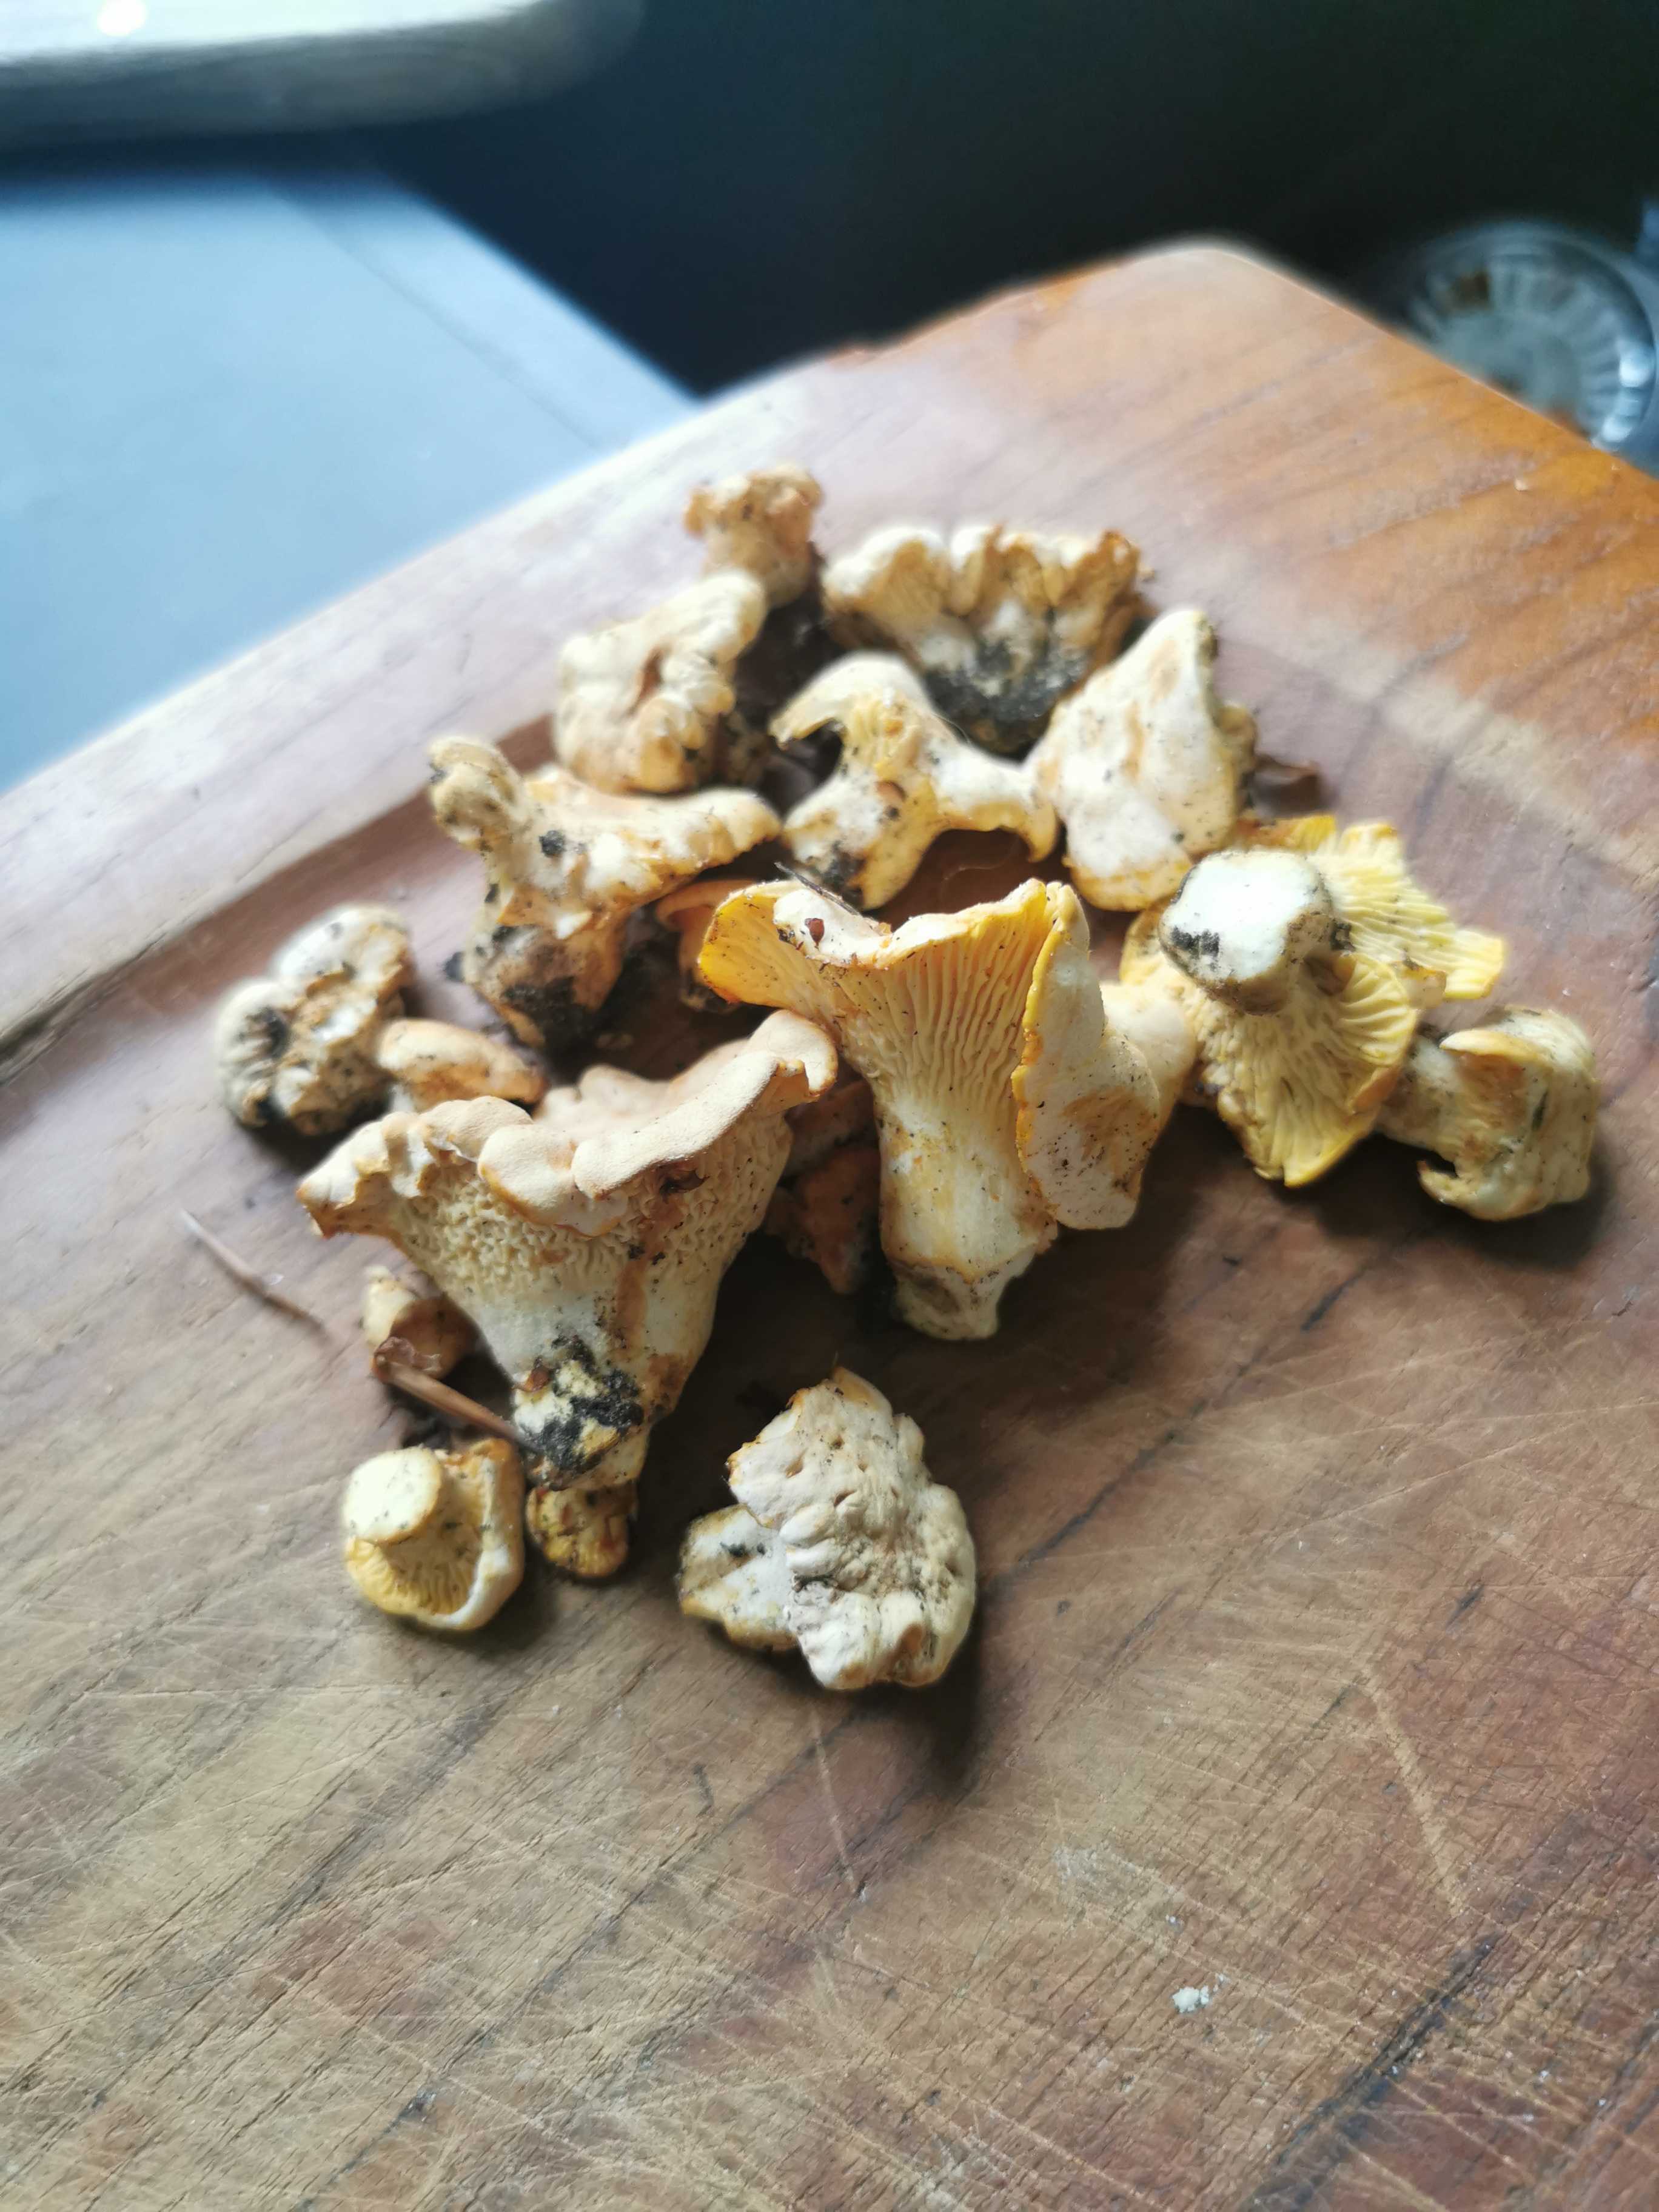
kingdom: Fungi
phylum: Basidiomycota
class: Agaricomycetes
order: Cantharellales
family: Hydnaceae
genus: Cantharellus
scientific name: Cantharellus pallens
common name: bleg kantarel
